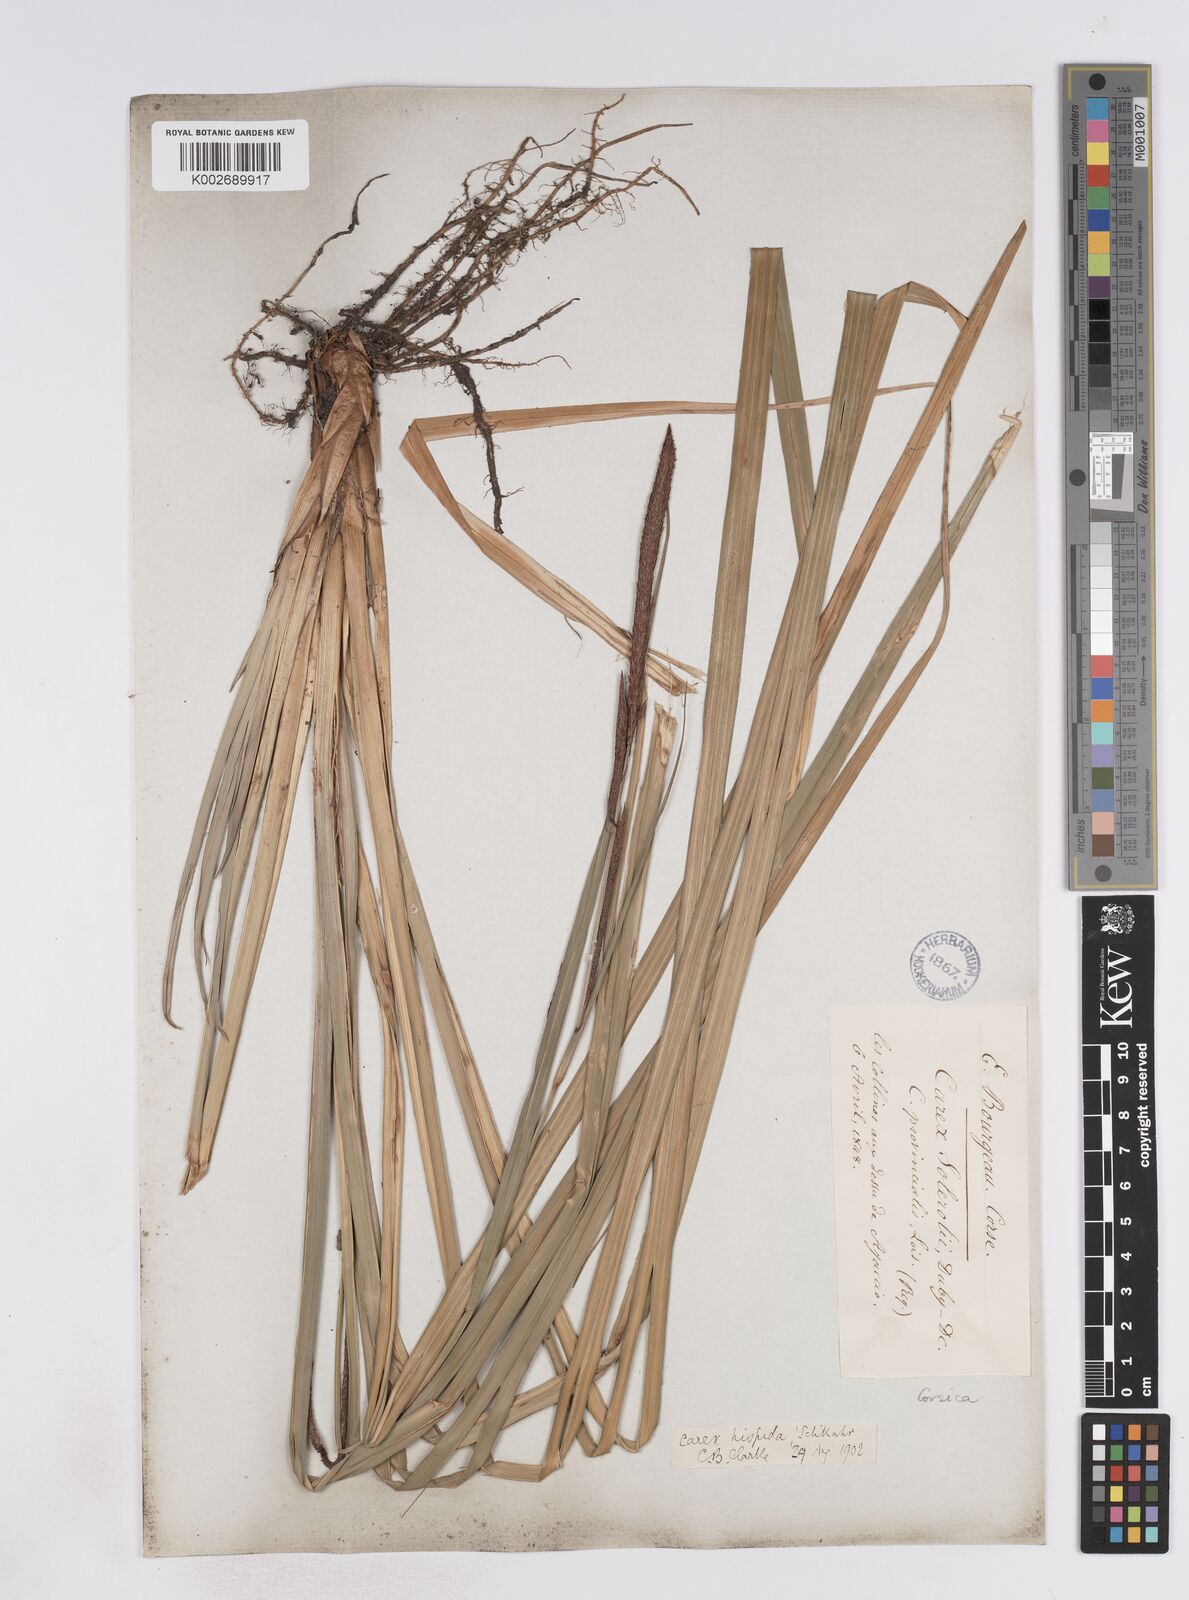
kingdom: Plantae
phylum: Tracheophyta
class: Liliopsida
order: Poales
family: Cyperaceae
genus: Carex
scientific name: Carex hispida
